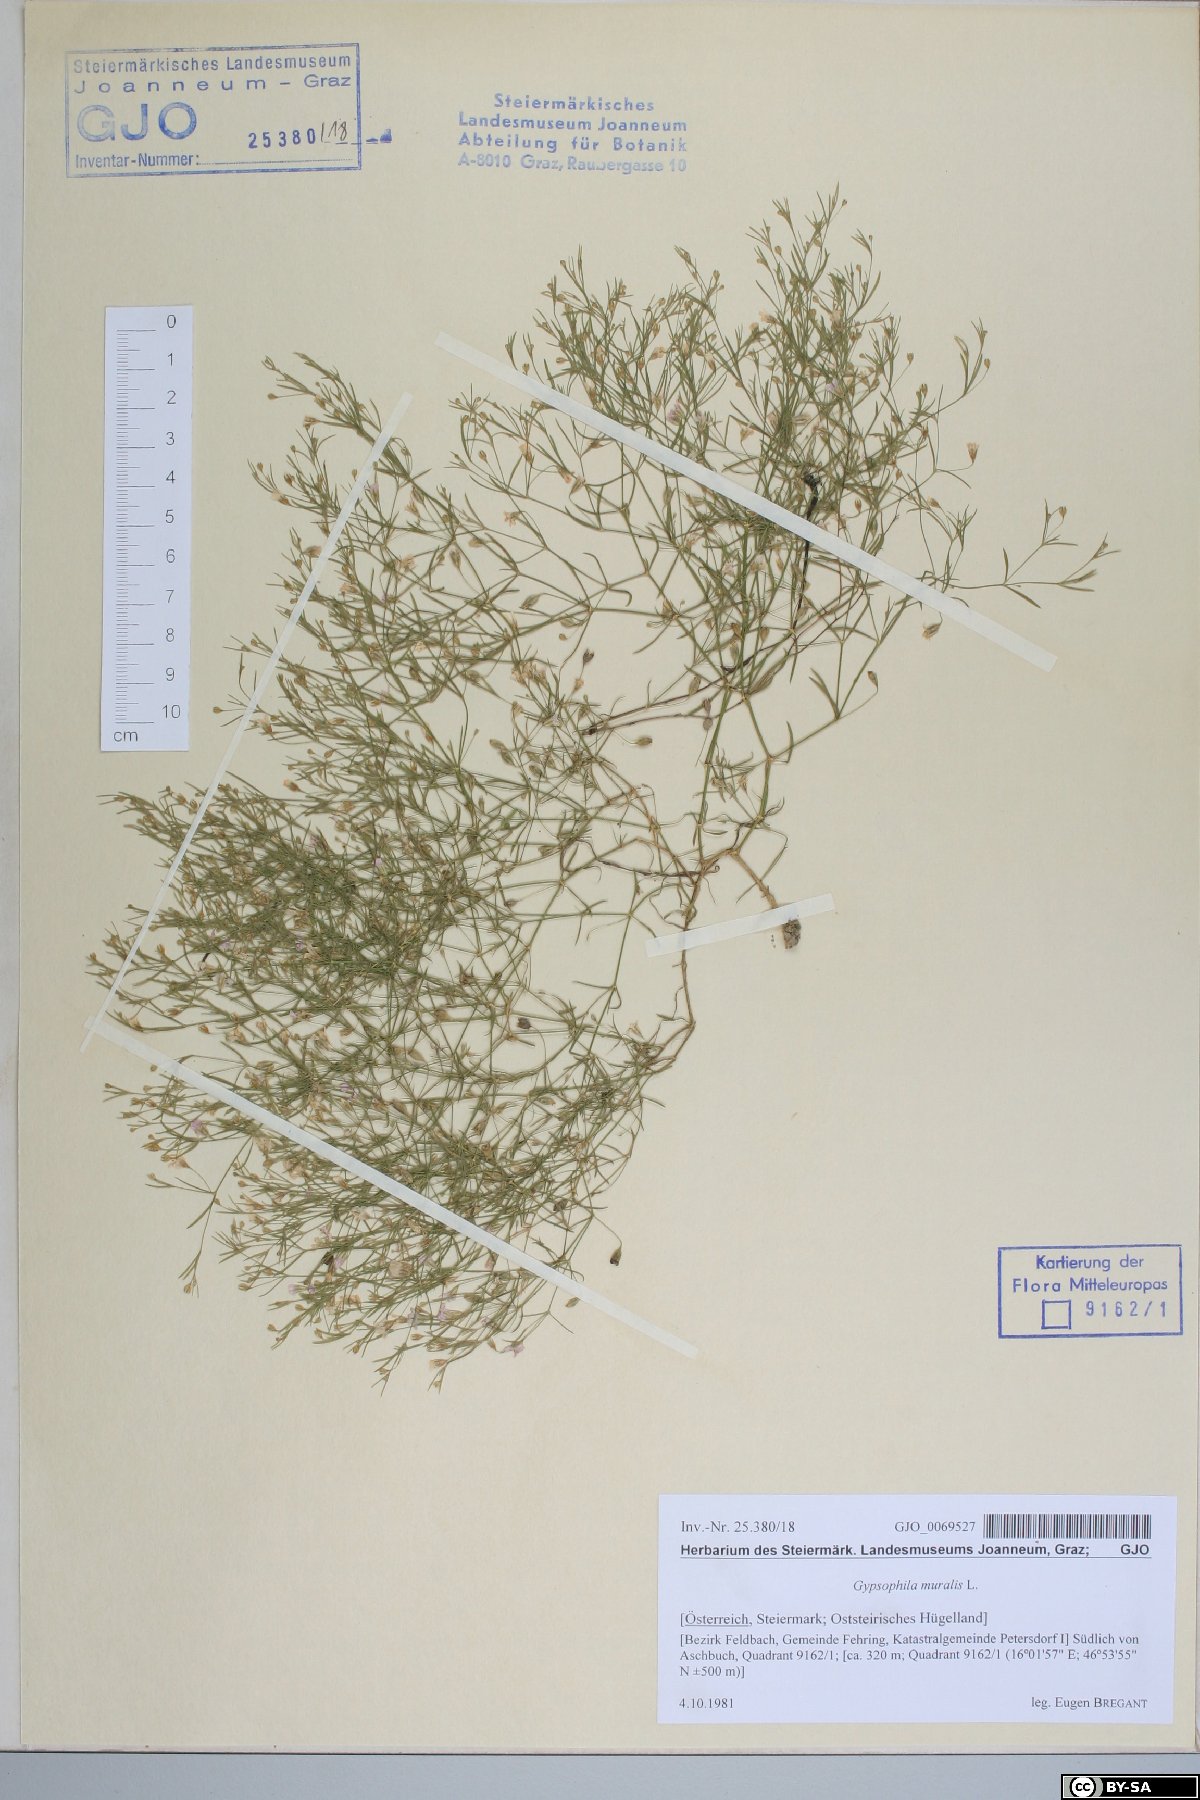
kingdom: Plantae
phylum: Tracheophyta
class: Magnoliopsida
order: Caryophyllales
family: Caryophyllaceae
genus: Psammophiliella
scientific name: Psammophiliella muralis
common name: Cushion baby's-breath
